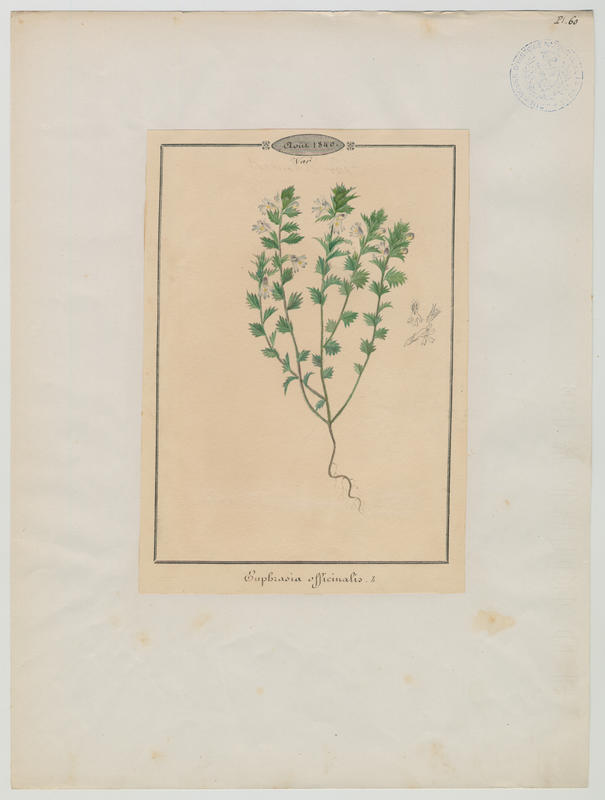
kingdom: Plantae
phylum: Tracheophyta
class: Magnoliopsida
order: Lamiales
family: Orobanchaceae
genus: Euphrasia
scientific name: Euphrasia officinalis
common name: Eyebright
